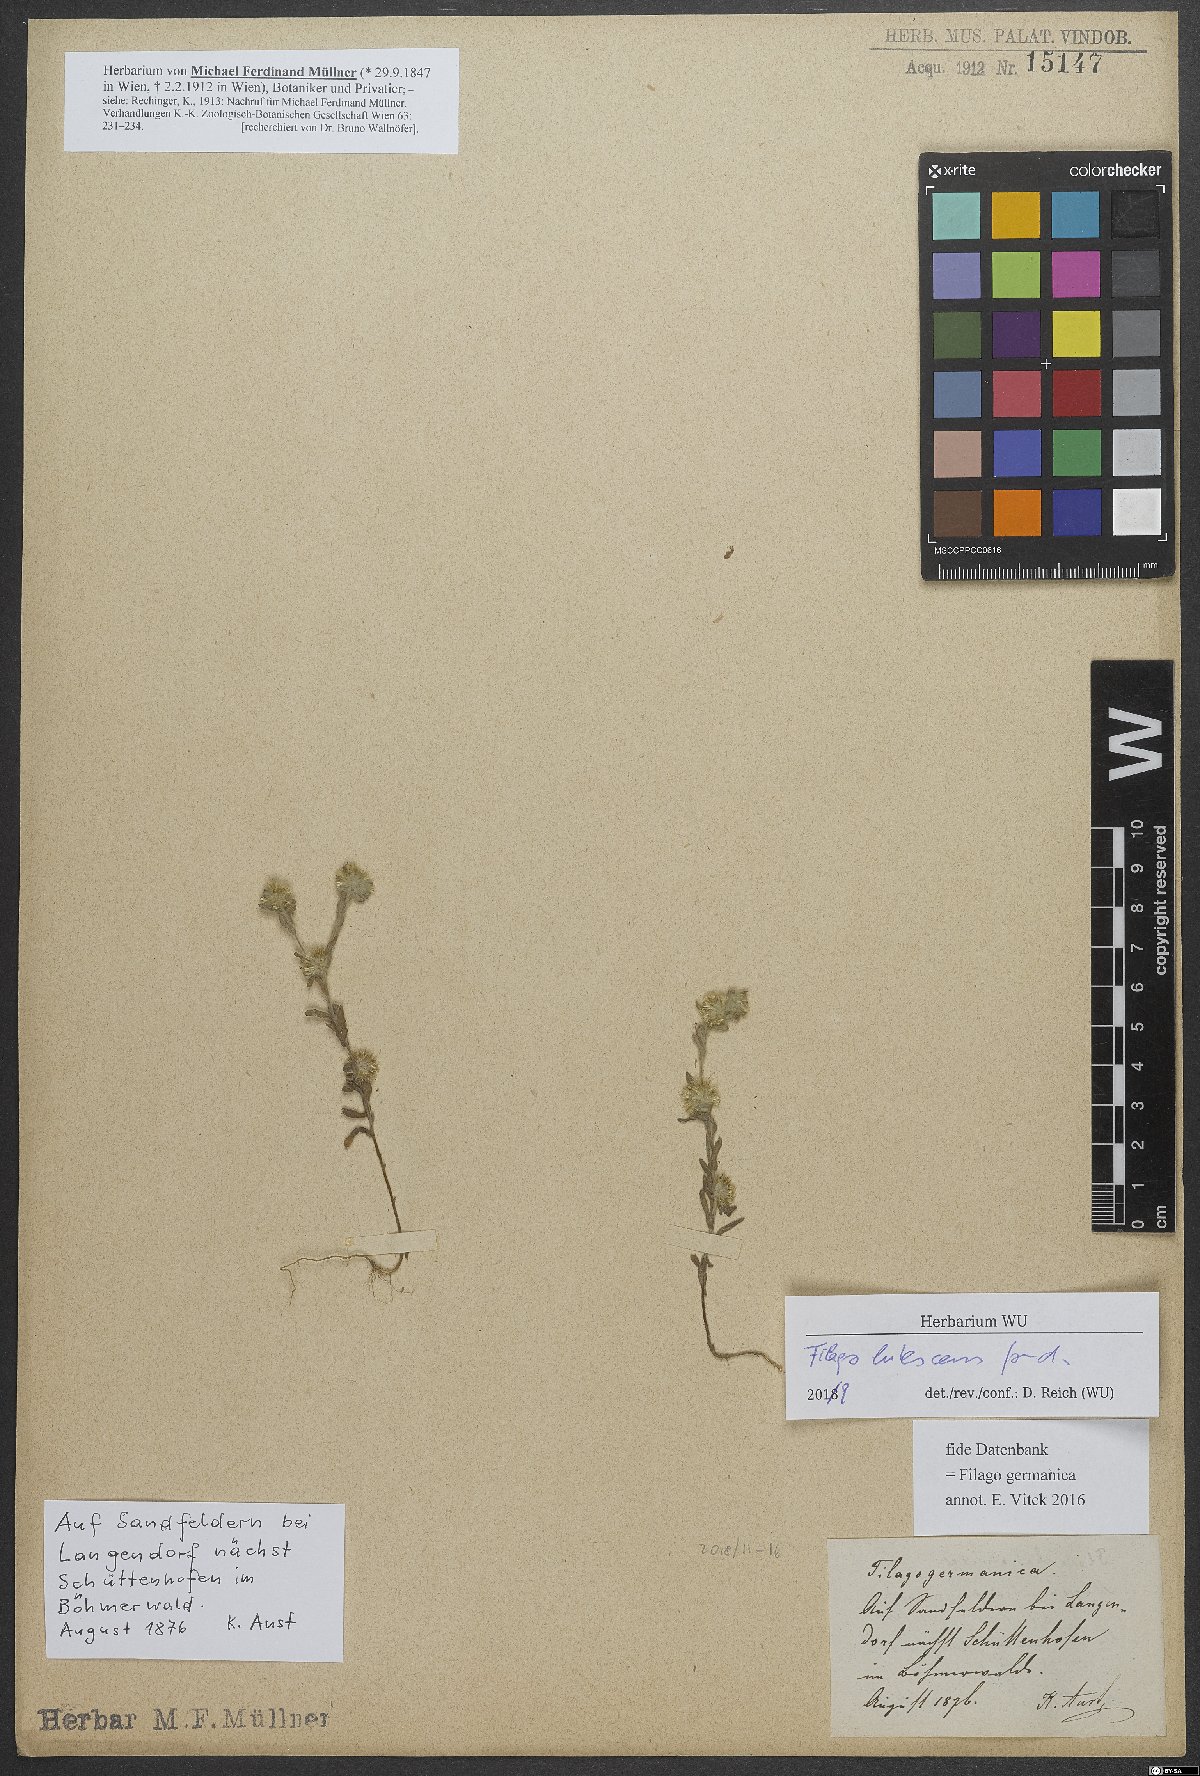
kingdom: Plantae
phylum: Tracheophyta
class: Magnoliopsida
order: Asterales
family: Asteraceae
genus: Filago
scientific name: Filago lutescens
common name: Red-tipped cudweed
